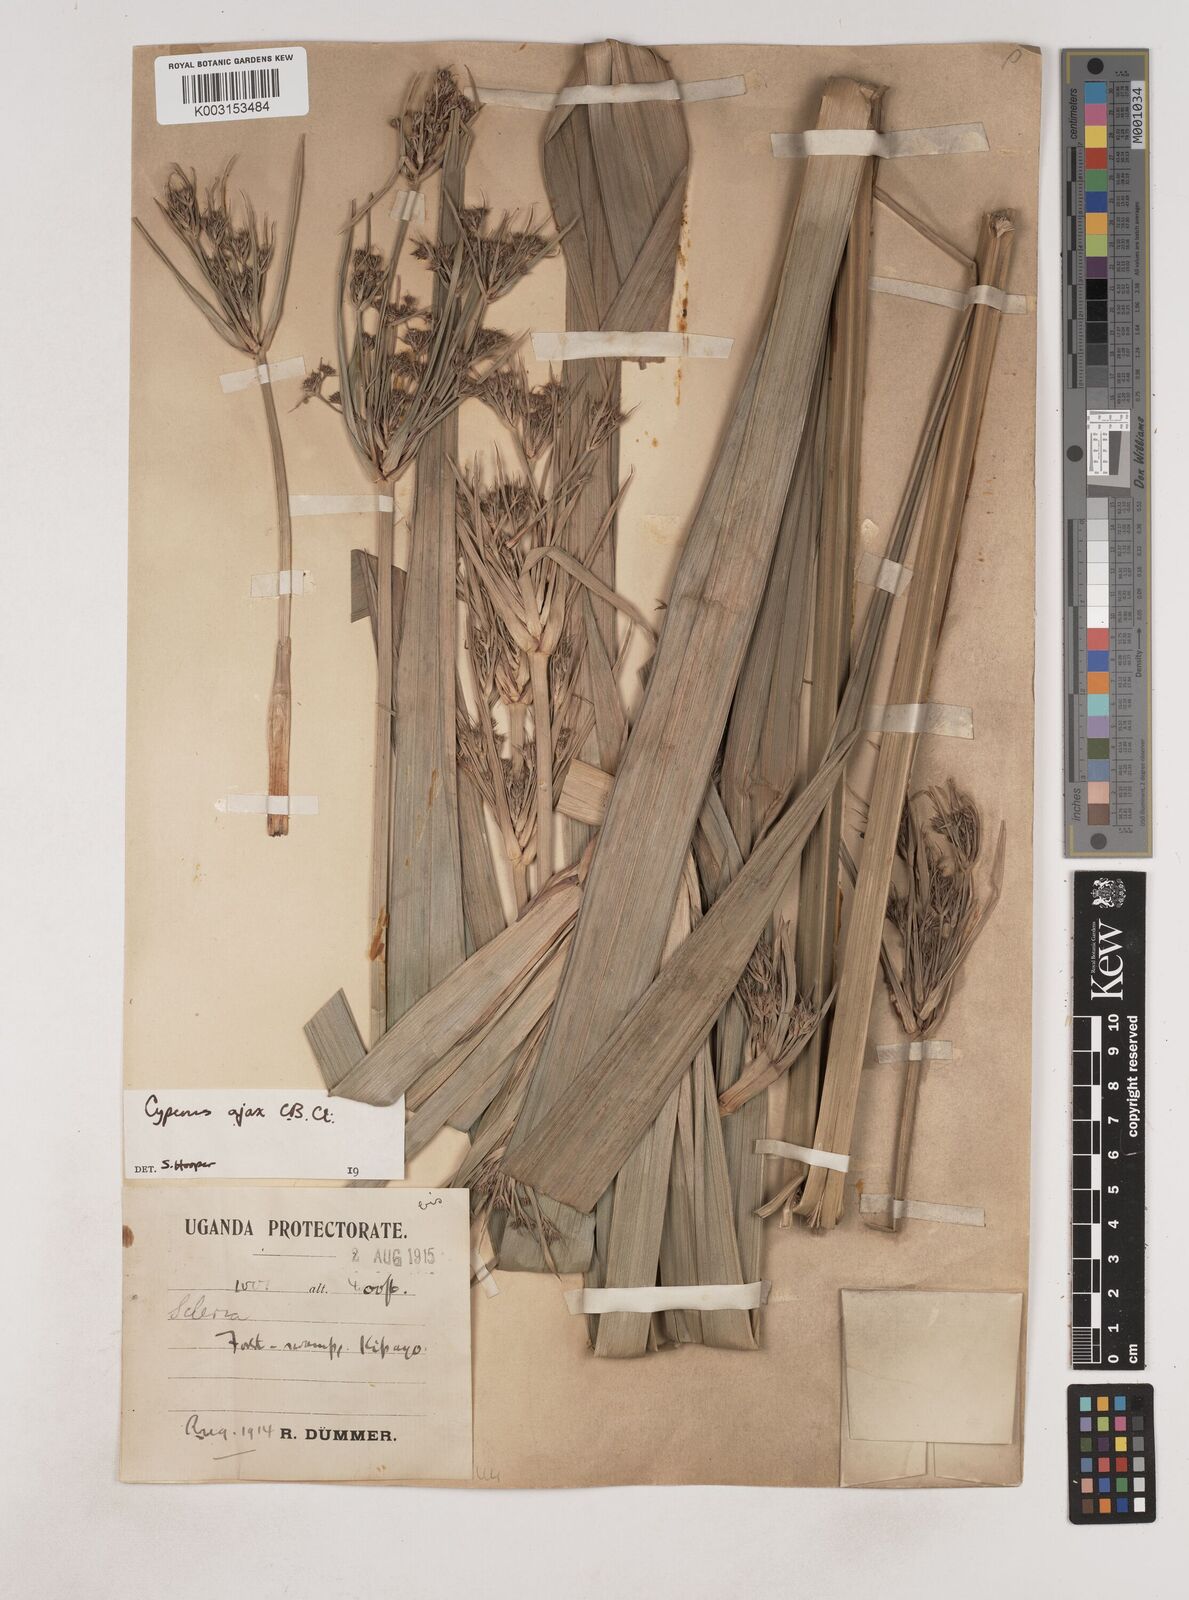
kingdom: Plantae
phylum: Tracheophyta
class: Liliopsida
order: Poales
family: Cyperaceae
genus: Cyperus
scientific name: Cyperus ajax
